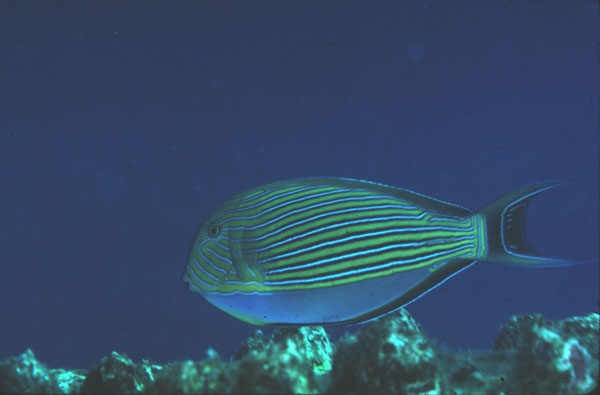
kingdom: Animalia
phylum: Chordata
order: Perciformes
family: Acanthuridae
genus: Acanthurus
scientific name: Acanthurus lineatus
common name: Striped surgeonfish
